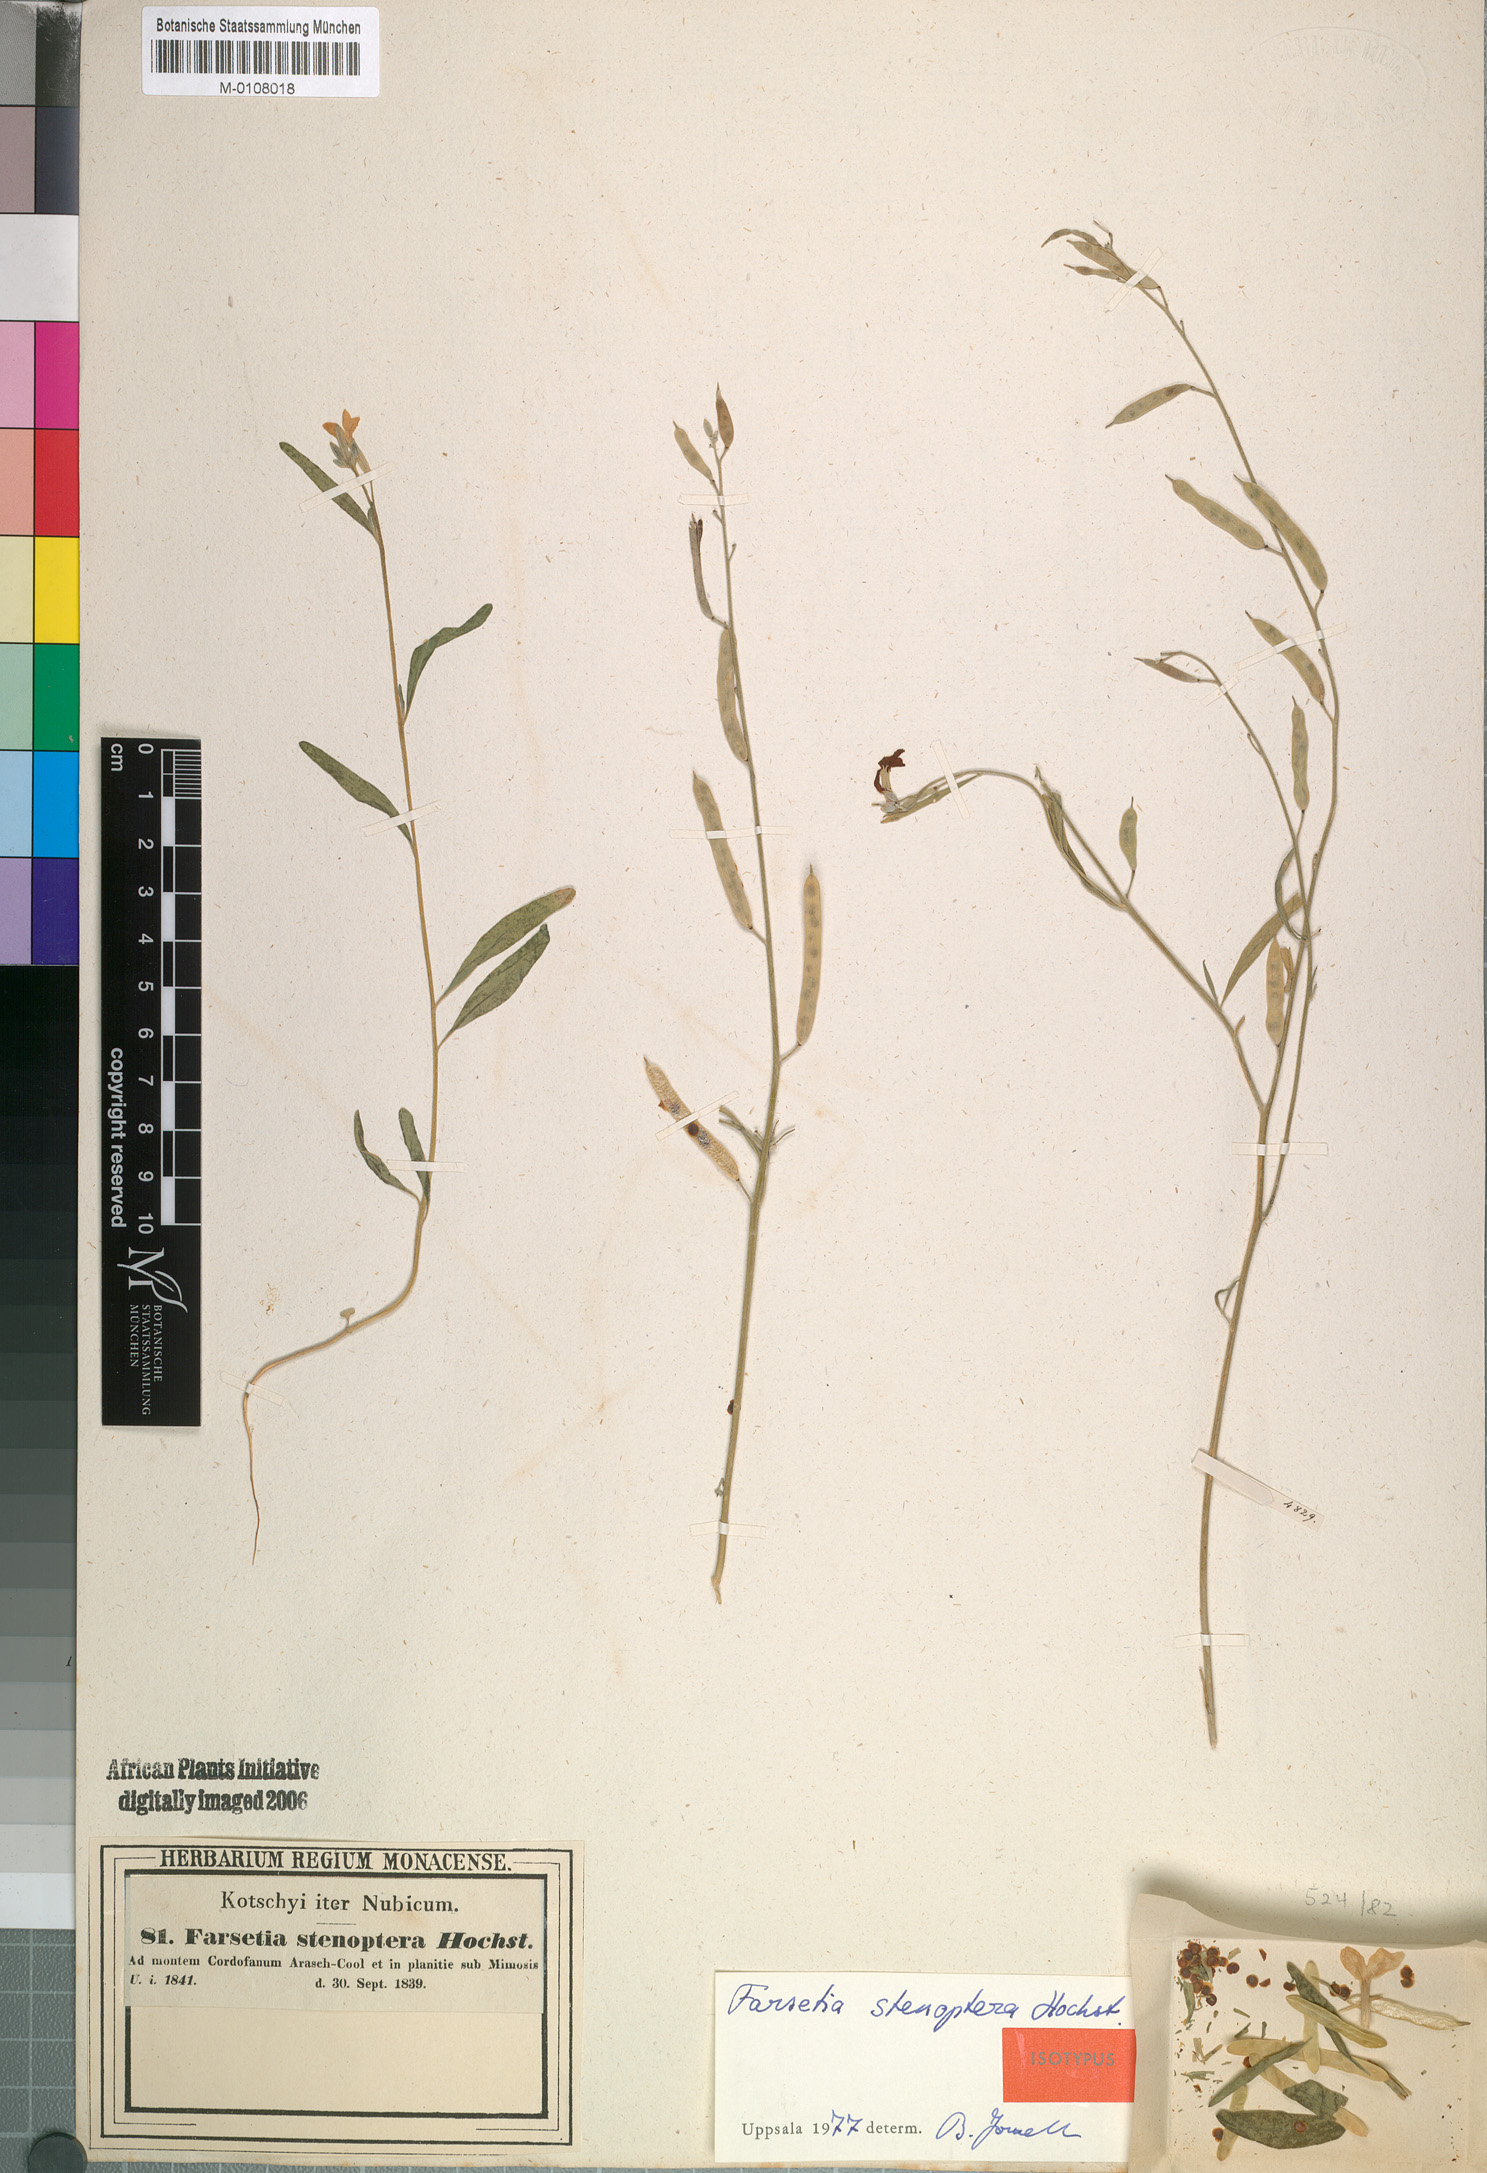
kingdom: Plantae
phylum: Tracheophyta
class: Magnoliopsida
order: Brassicales
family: Brassicaceae
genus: Farsetia
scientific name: Farsetia stenoptera
